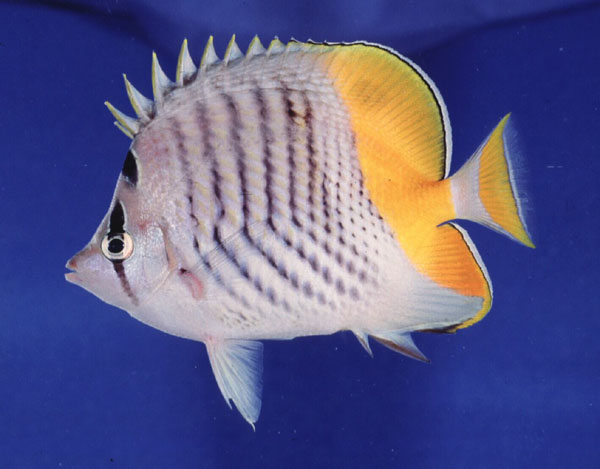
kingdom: Animalia
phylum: Chordata
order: Perciformes
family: Chaetodontidae
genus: Chaetodon
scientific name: Chaetodon madagaskariensis
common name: Madagascar butterflyfish
